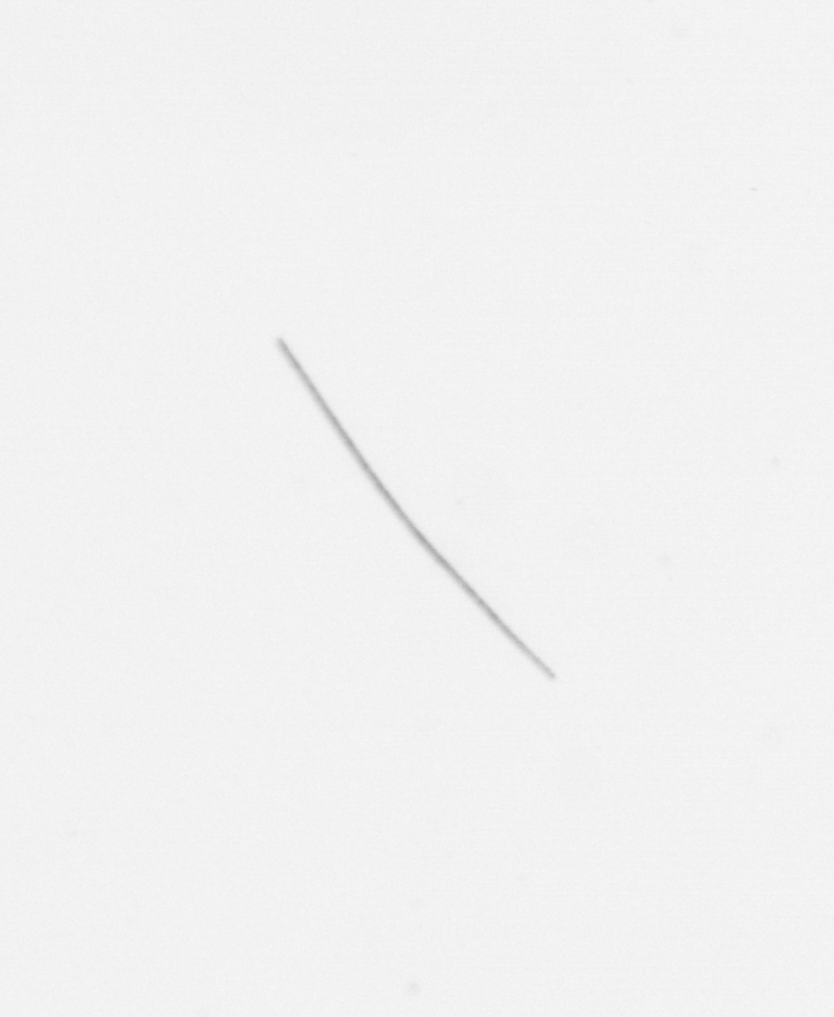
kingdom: Chromista
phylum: Ochrophyta
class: Bacillariophyceae
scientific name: Bacillariophyceae
